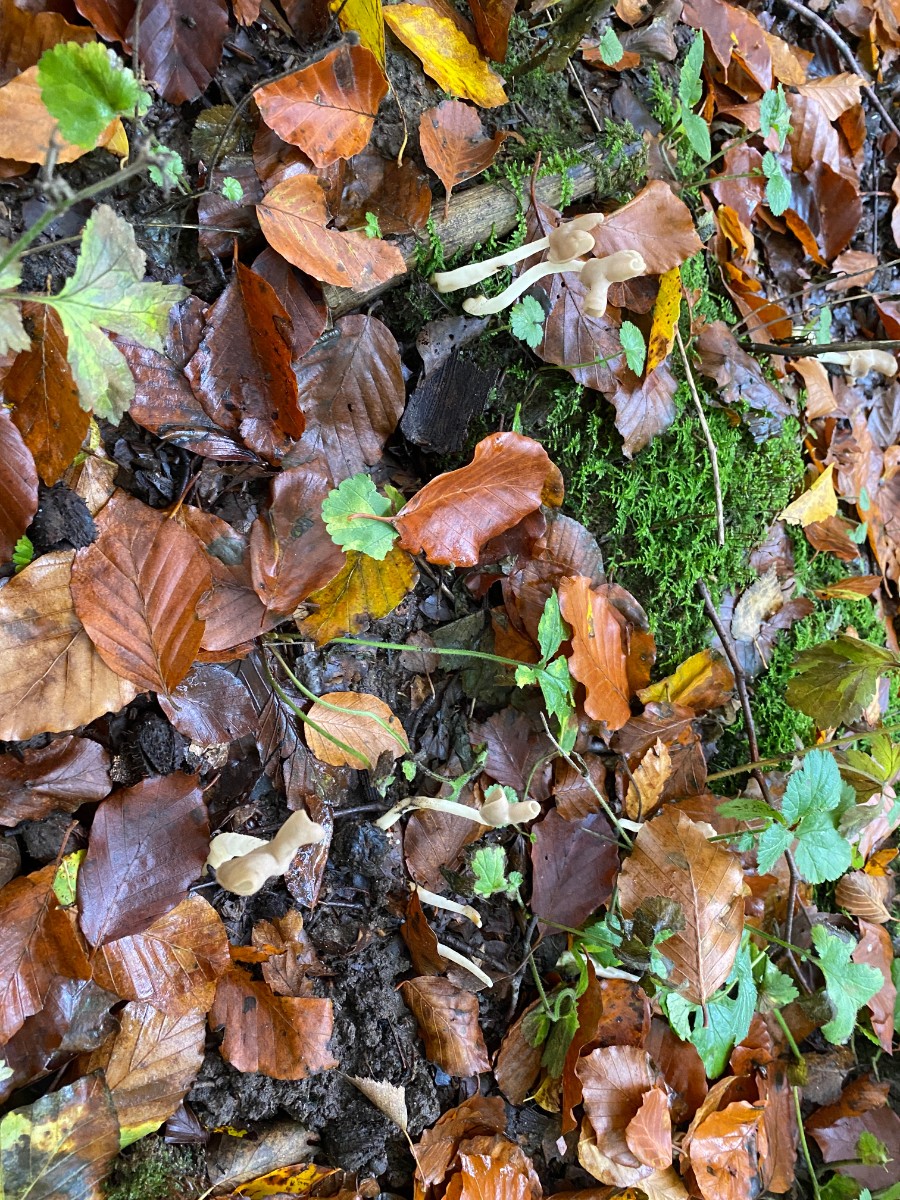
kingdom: Fungi
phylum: Ascomycota
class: Pezizomycetes
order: Pezizales
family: Helvellaceae
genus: Helvella
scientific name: Helvella elastica
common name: elastik-foldhat
